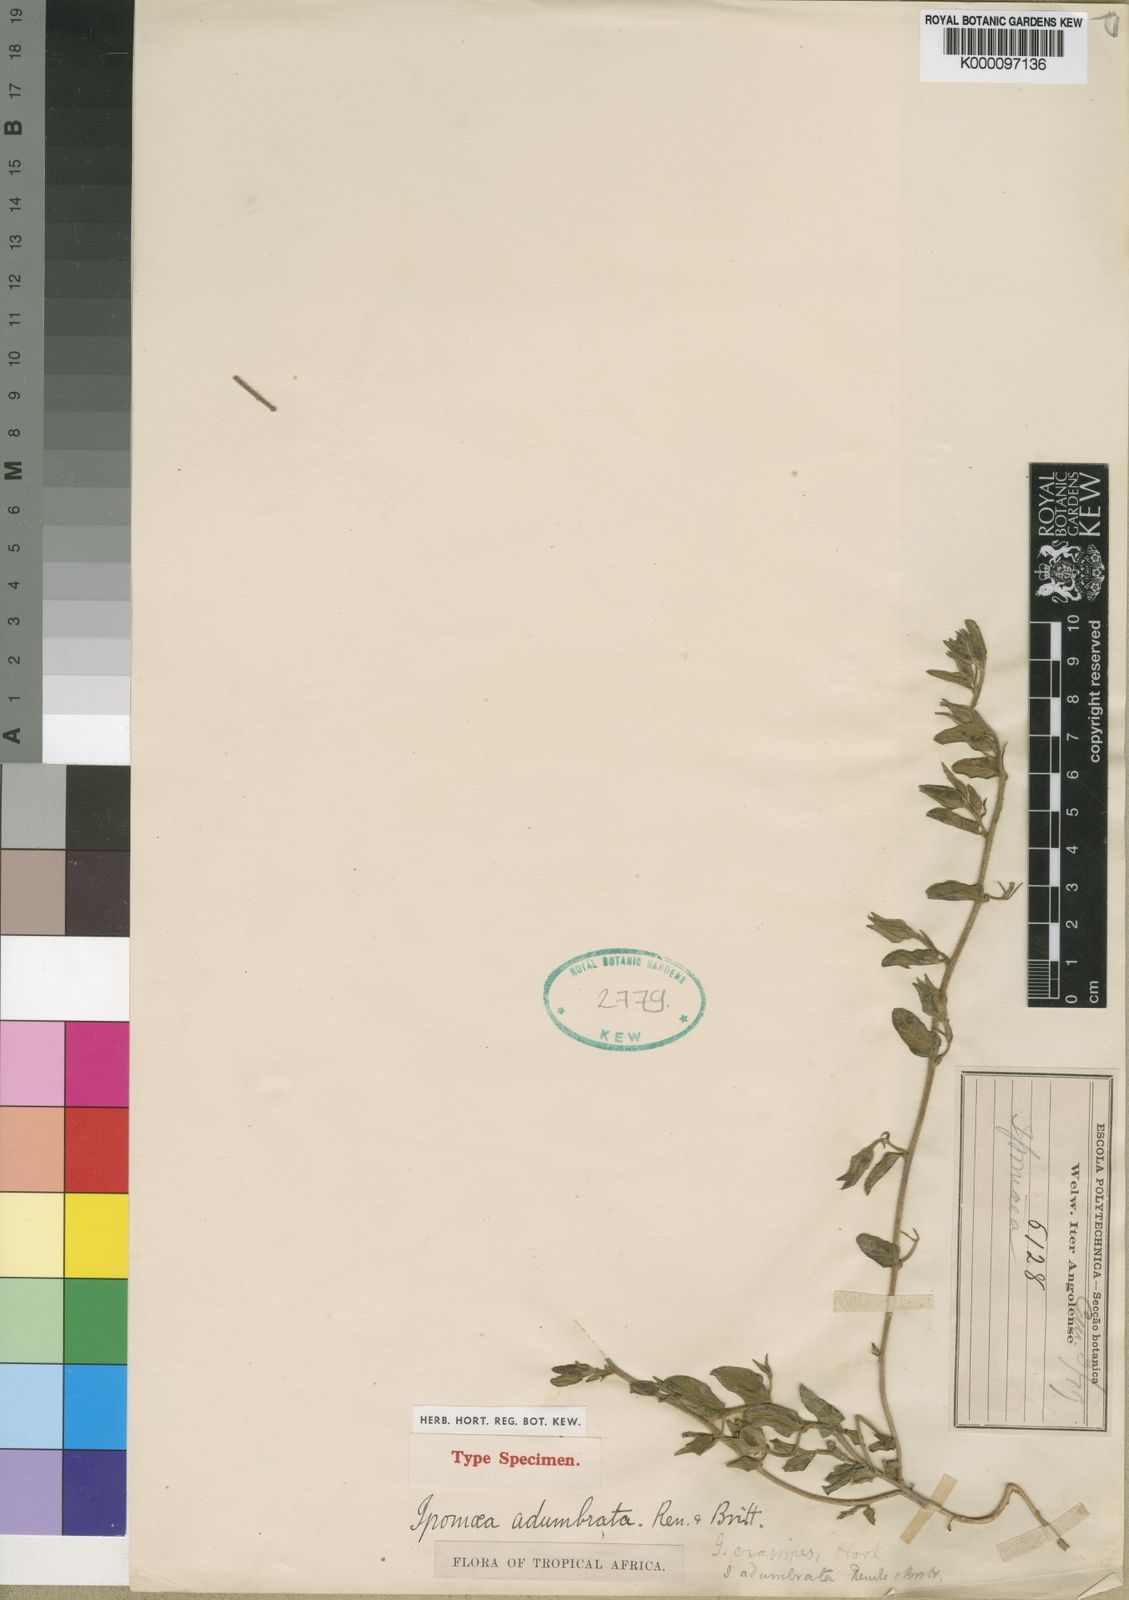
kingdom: Plantae
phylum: Tracheophyta
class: Magnoliopsida
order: Solanales
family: Convolvulaceae
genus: Ipomoea
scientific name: Ipomoea crassipes
